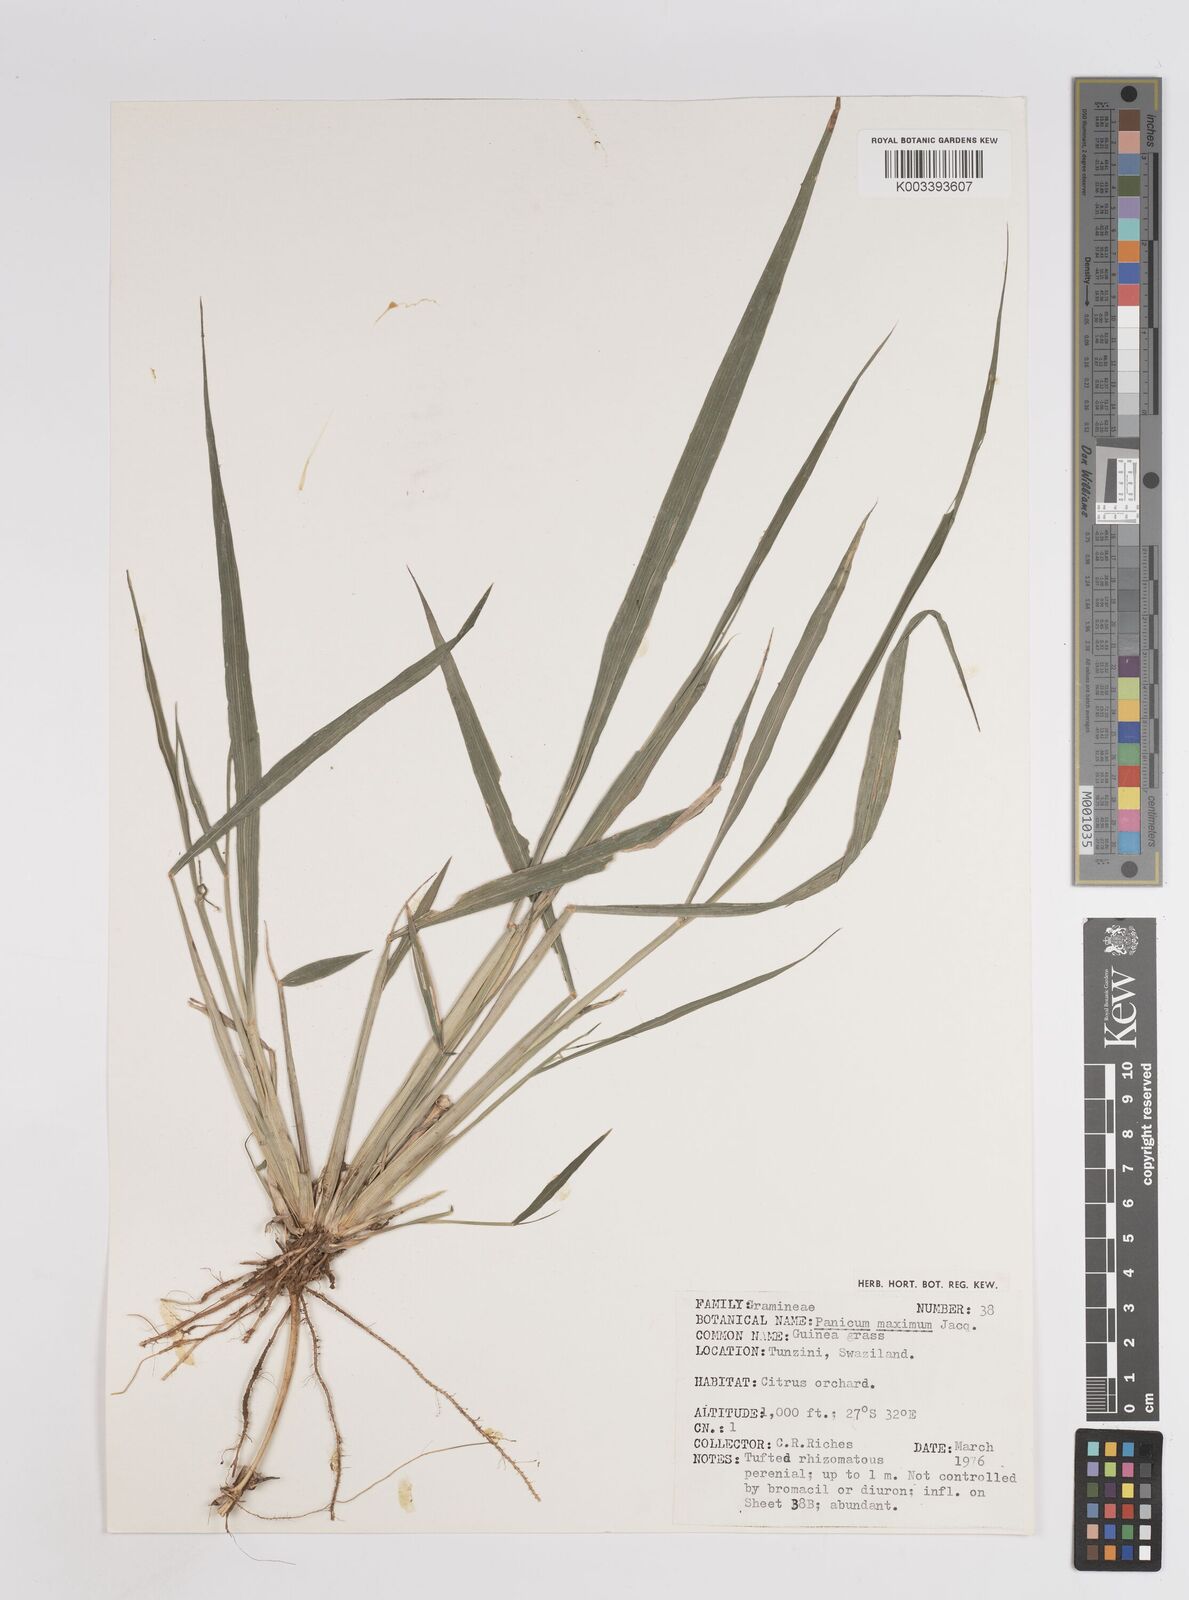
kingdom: Plantae
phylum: Tracheophyta
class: Liliopsida
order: Poales
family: Poaceae
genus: Megathyrsus
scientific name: Megathyrsus maximus
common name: Guineagrass
